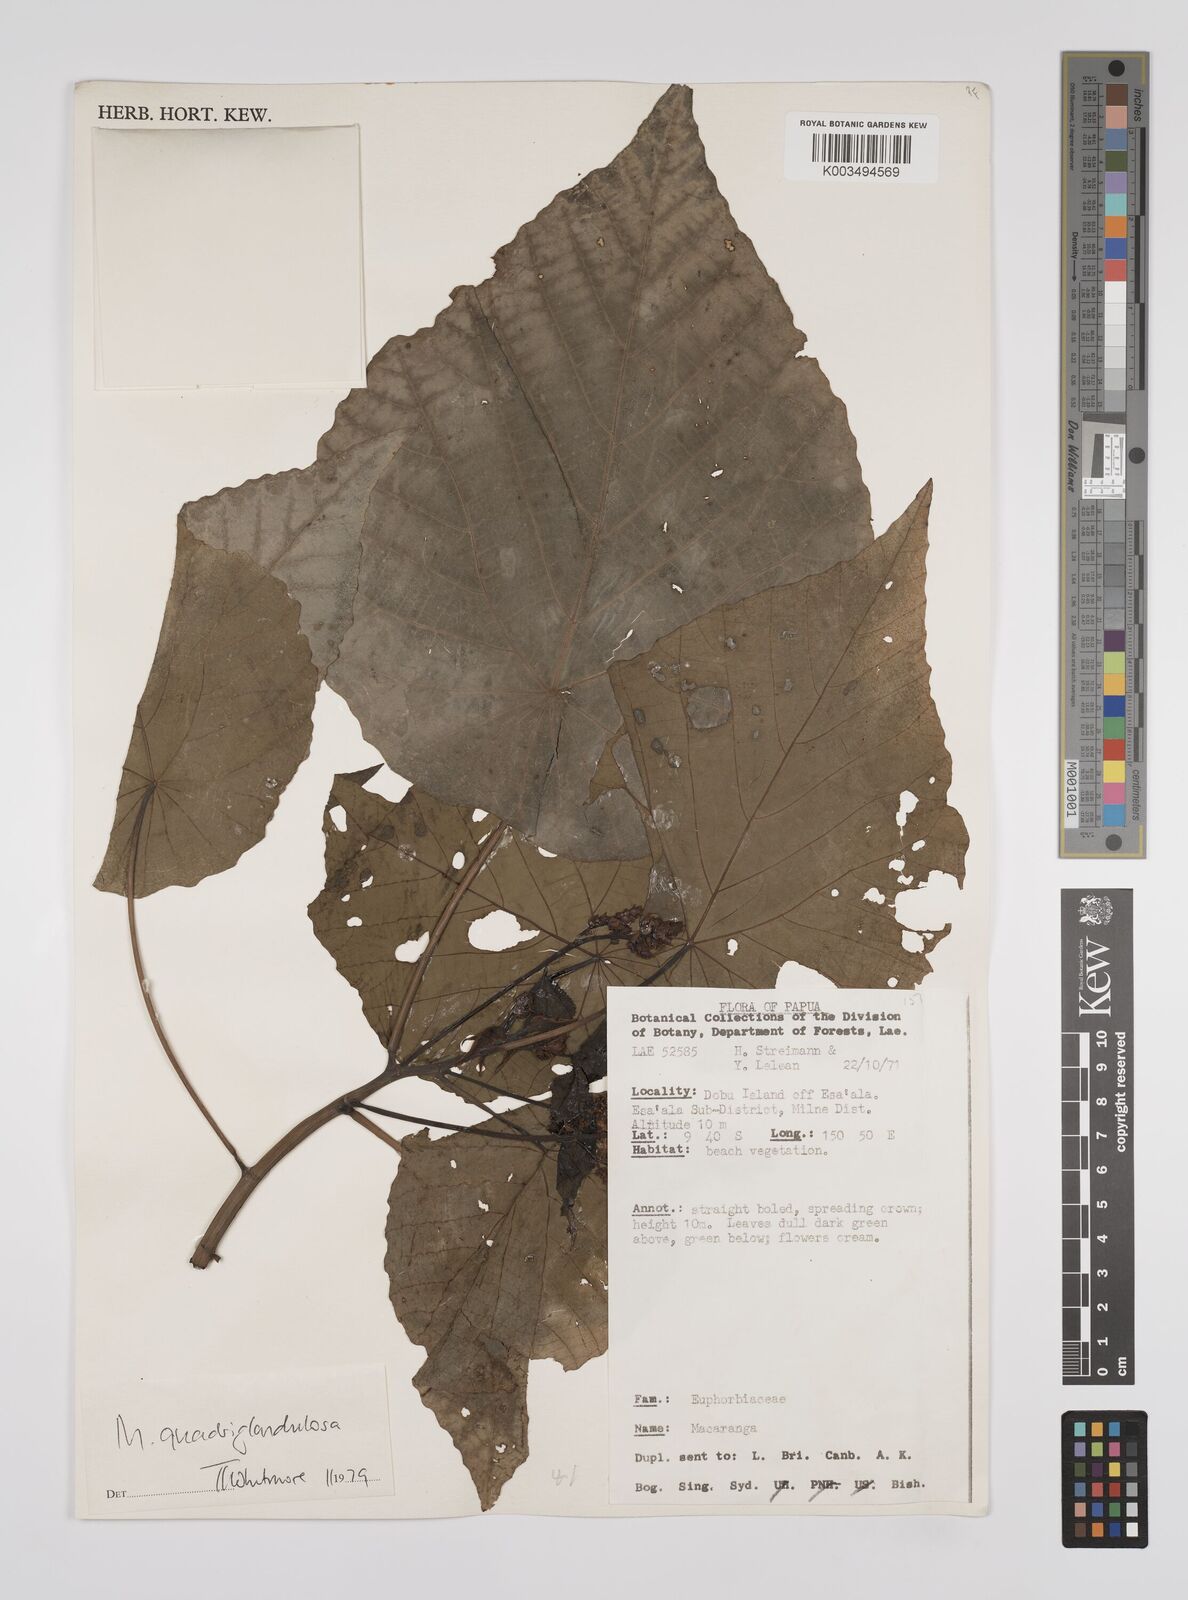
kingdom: Plantae
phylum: Tracheophyta
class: Magnoliopsida
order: Malpighiales
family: Euphorbiaceae
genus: Macaranga
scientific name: Macaranga quadriglandulosa
